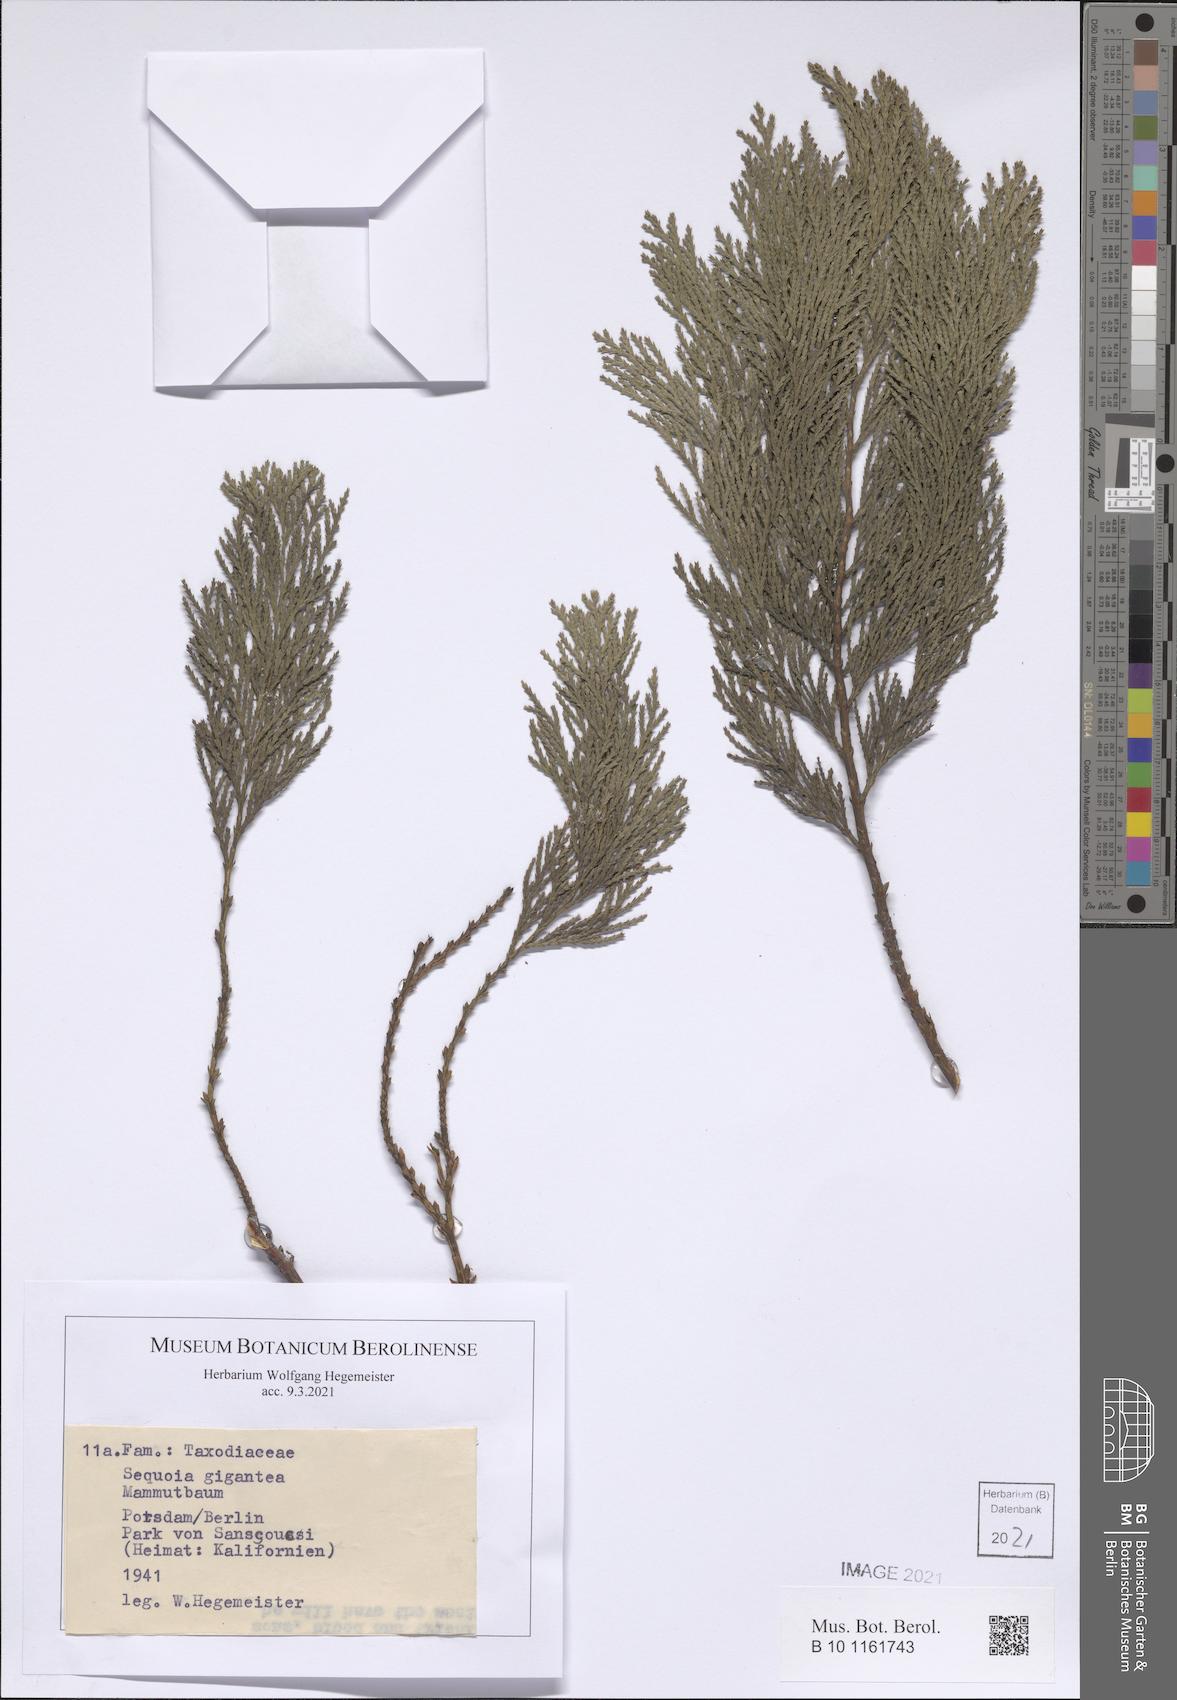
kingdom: Plantae
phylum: Tracheophyta
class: Pinopsida
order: Pinales
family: Cupressaceae
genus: Sequoiadendron
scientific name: Sequoiadendron giganteum
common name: Wellingtonia
